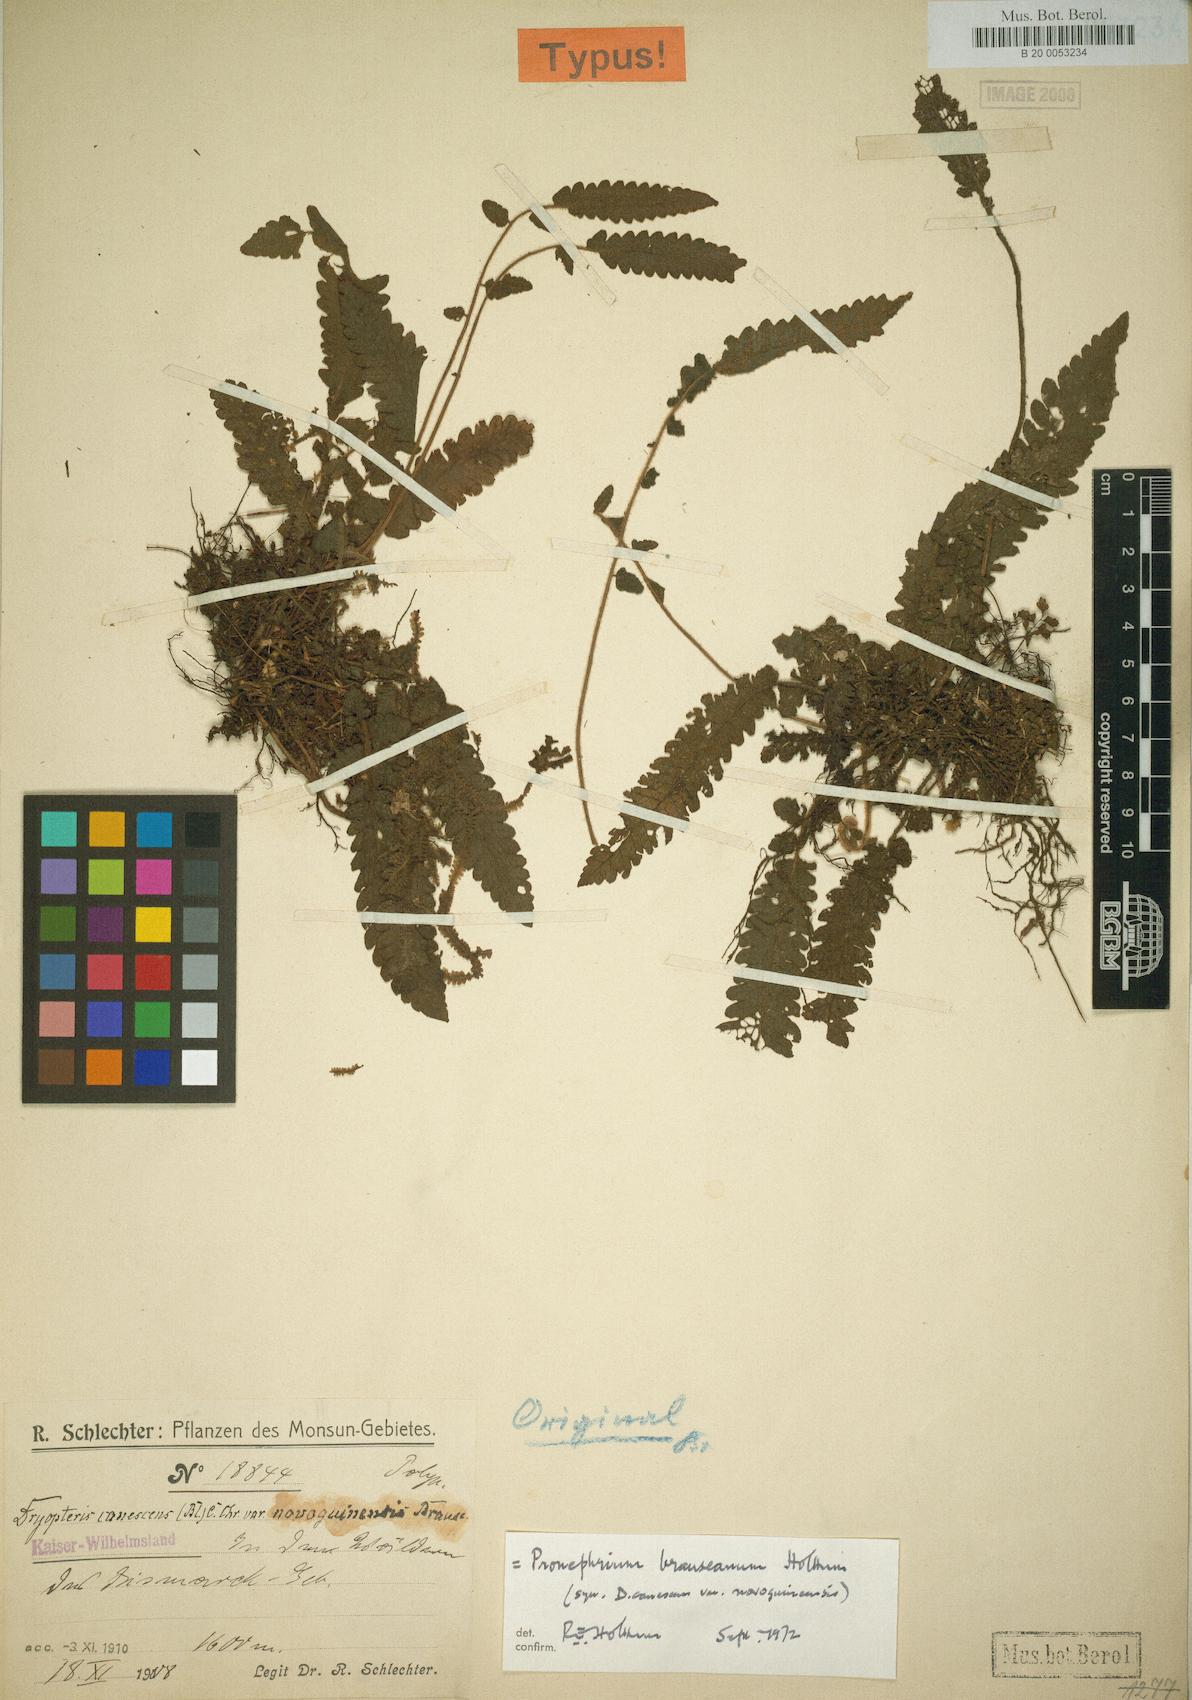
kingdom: Plantae
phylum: Tracheophyta
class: Polypodiopsida
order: Polypodiales
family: Thelypteridaceae
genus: Sphaerostephanos
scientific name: Sphaerostephanos brauseanus
